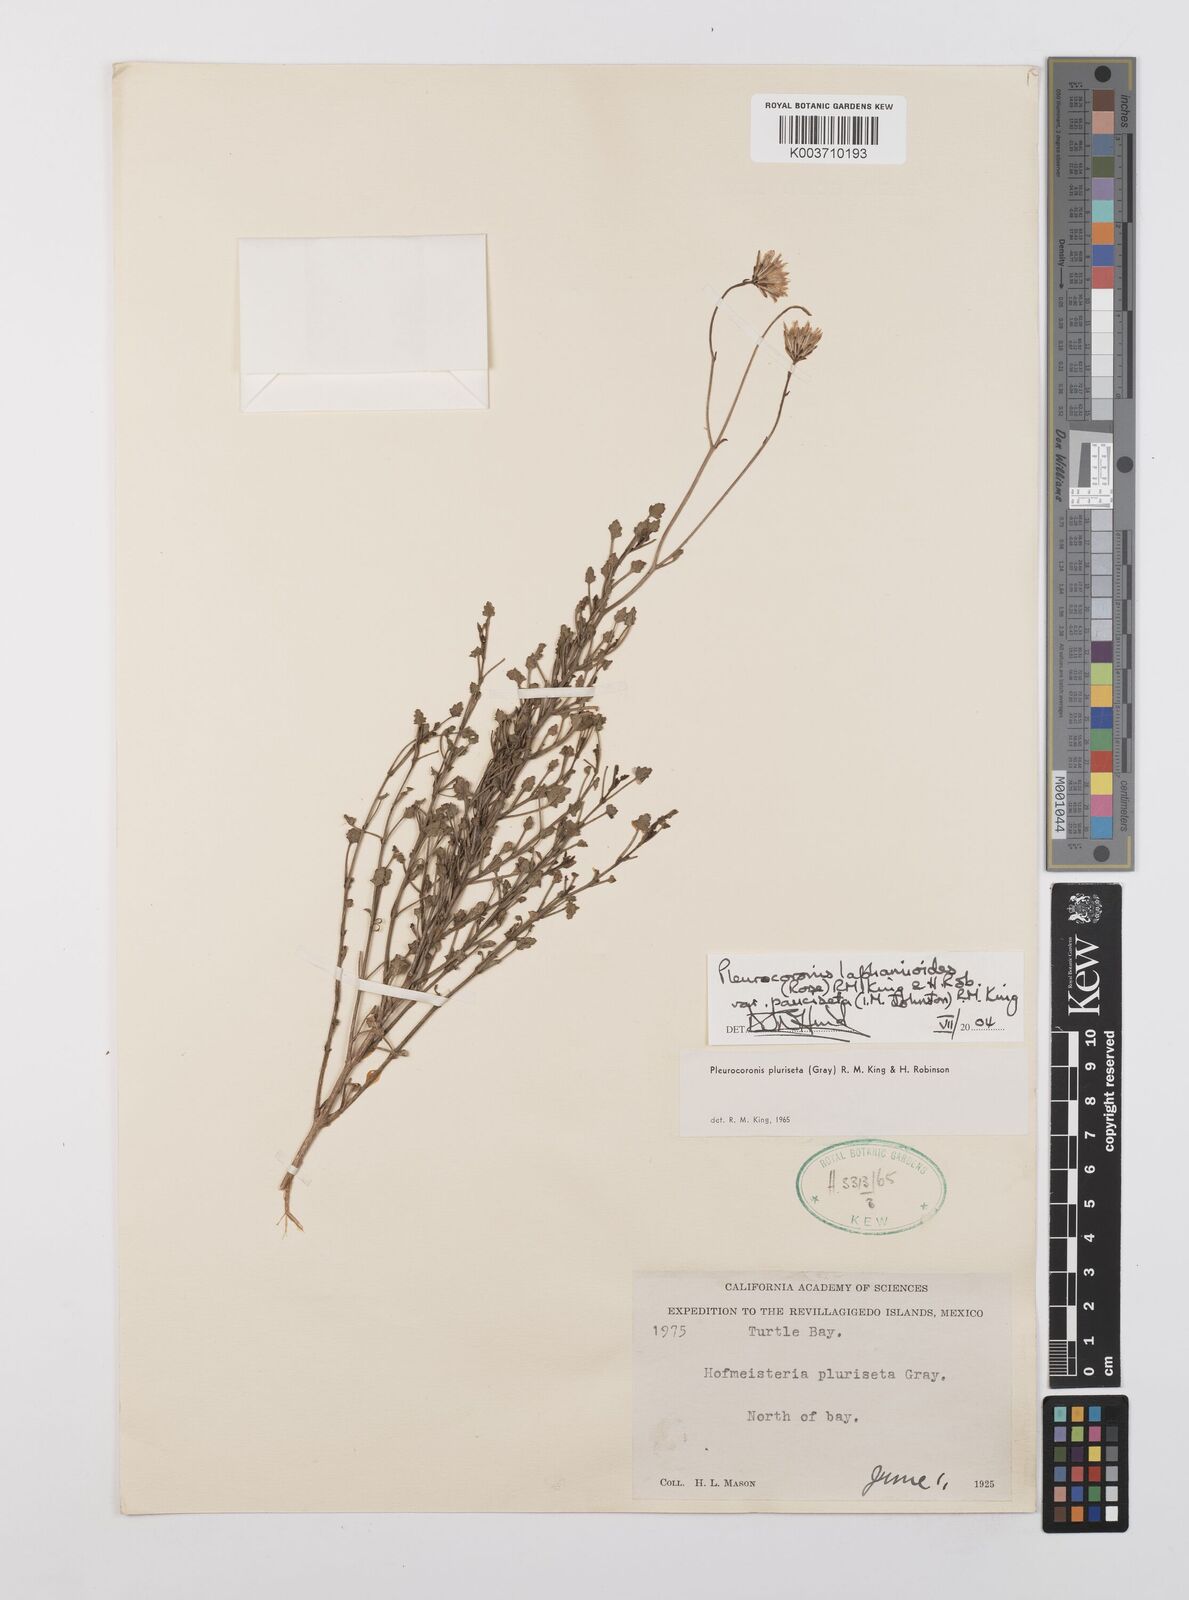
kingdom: Plantae
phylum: Tracheophyta
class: Magnoliopsida
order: Asterales
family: Asteraceae
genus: Pleurocoronis
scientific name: Pleurocoronis laphamioides
